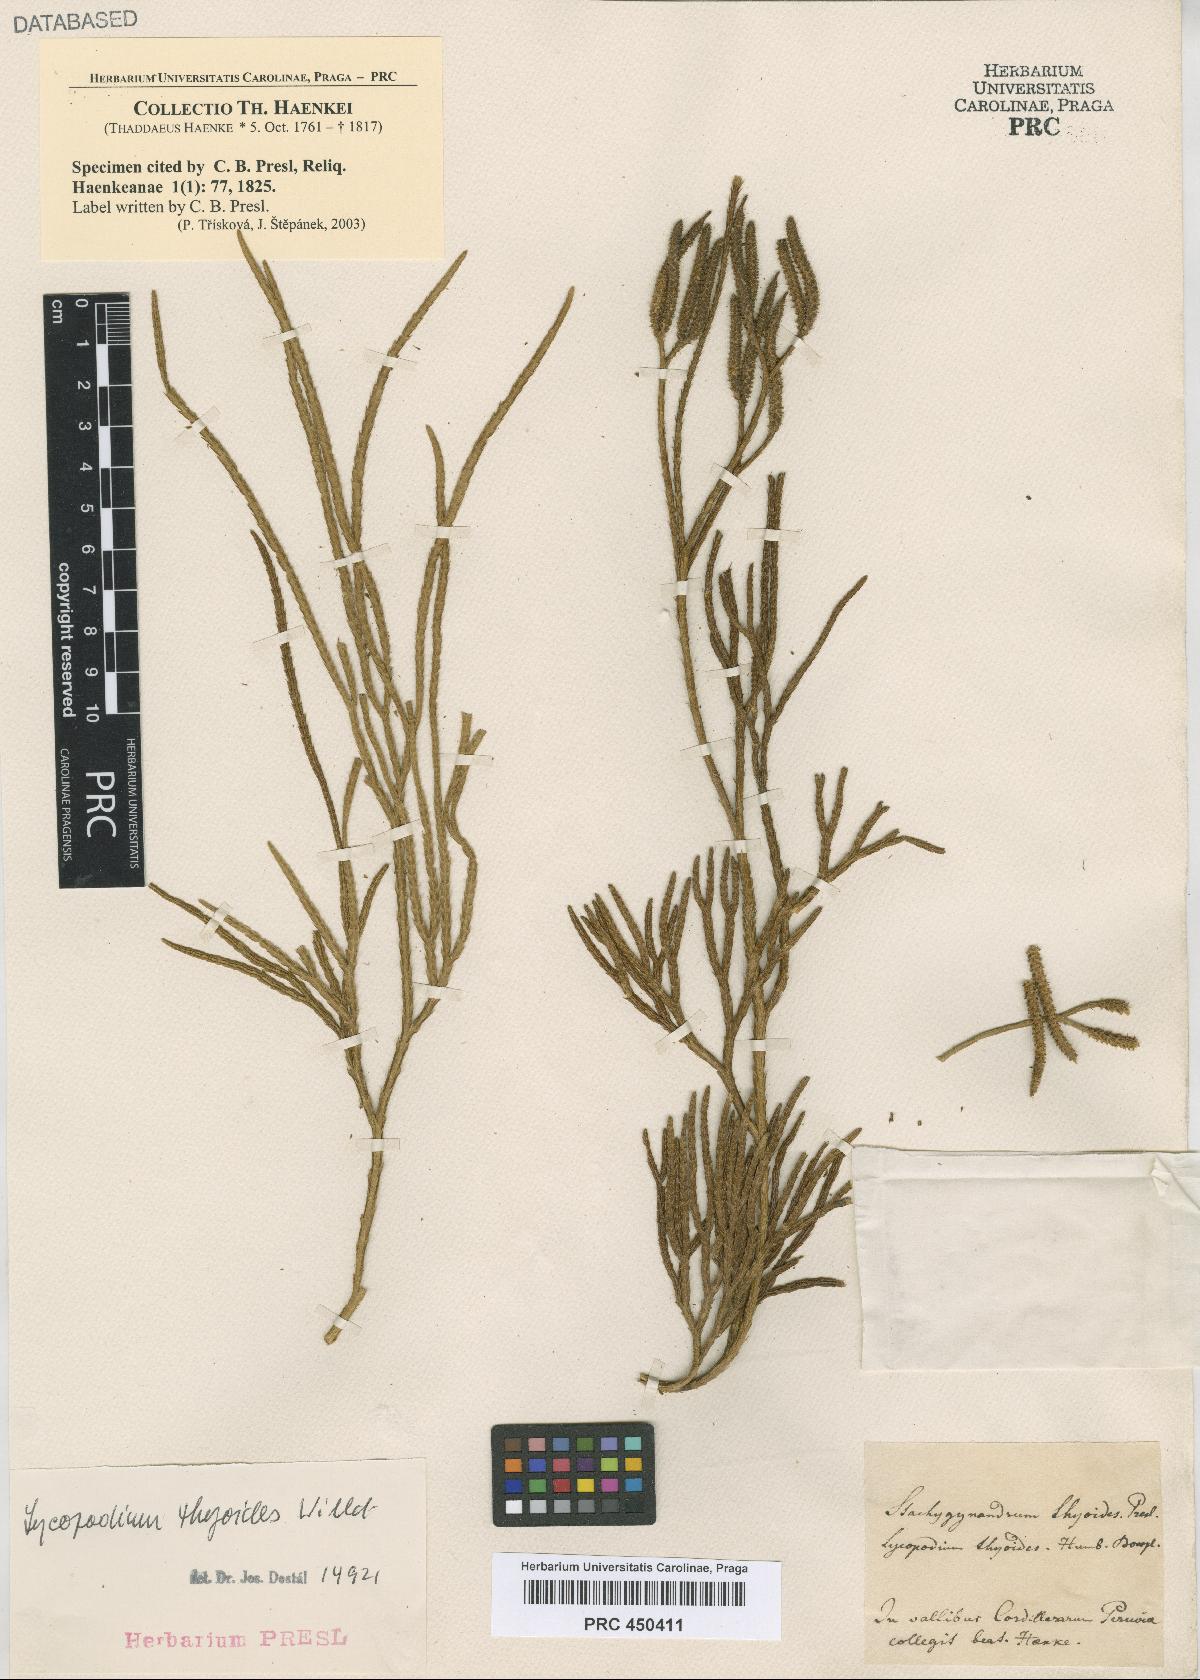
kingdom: Plantae
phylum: Tracheophyta
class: Lycopodiopsida
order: Lycopodiales
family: Lycopodiaceae
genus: Diphasiastrum
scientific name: Diphasiastrum thyoides
